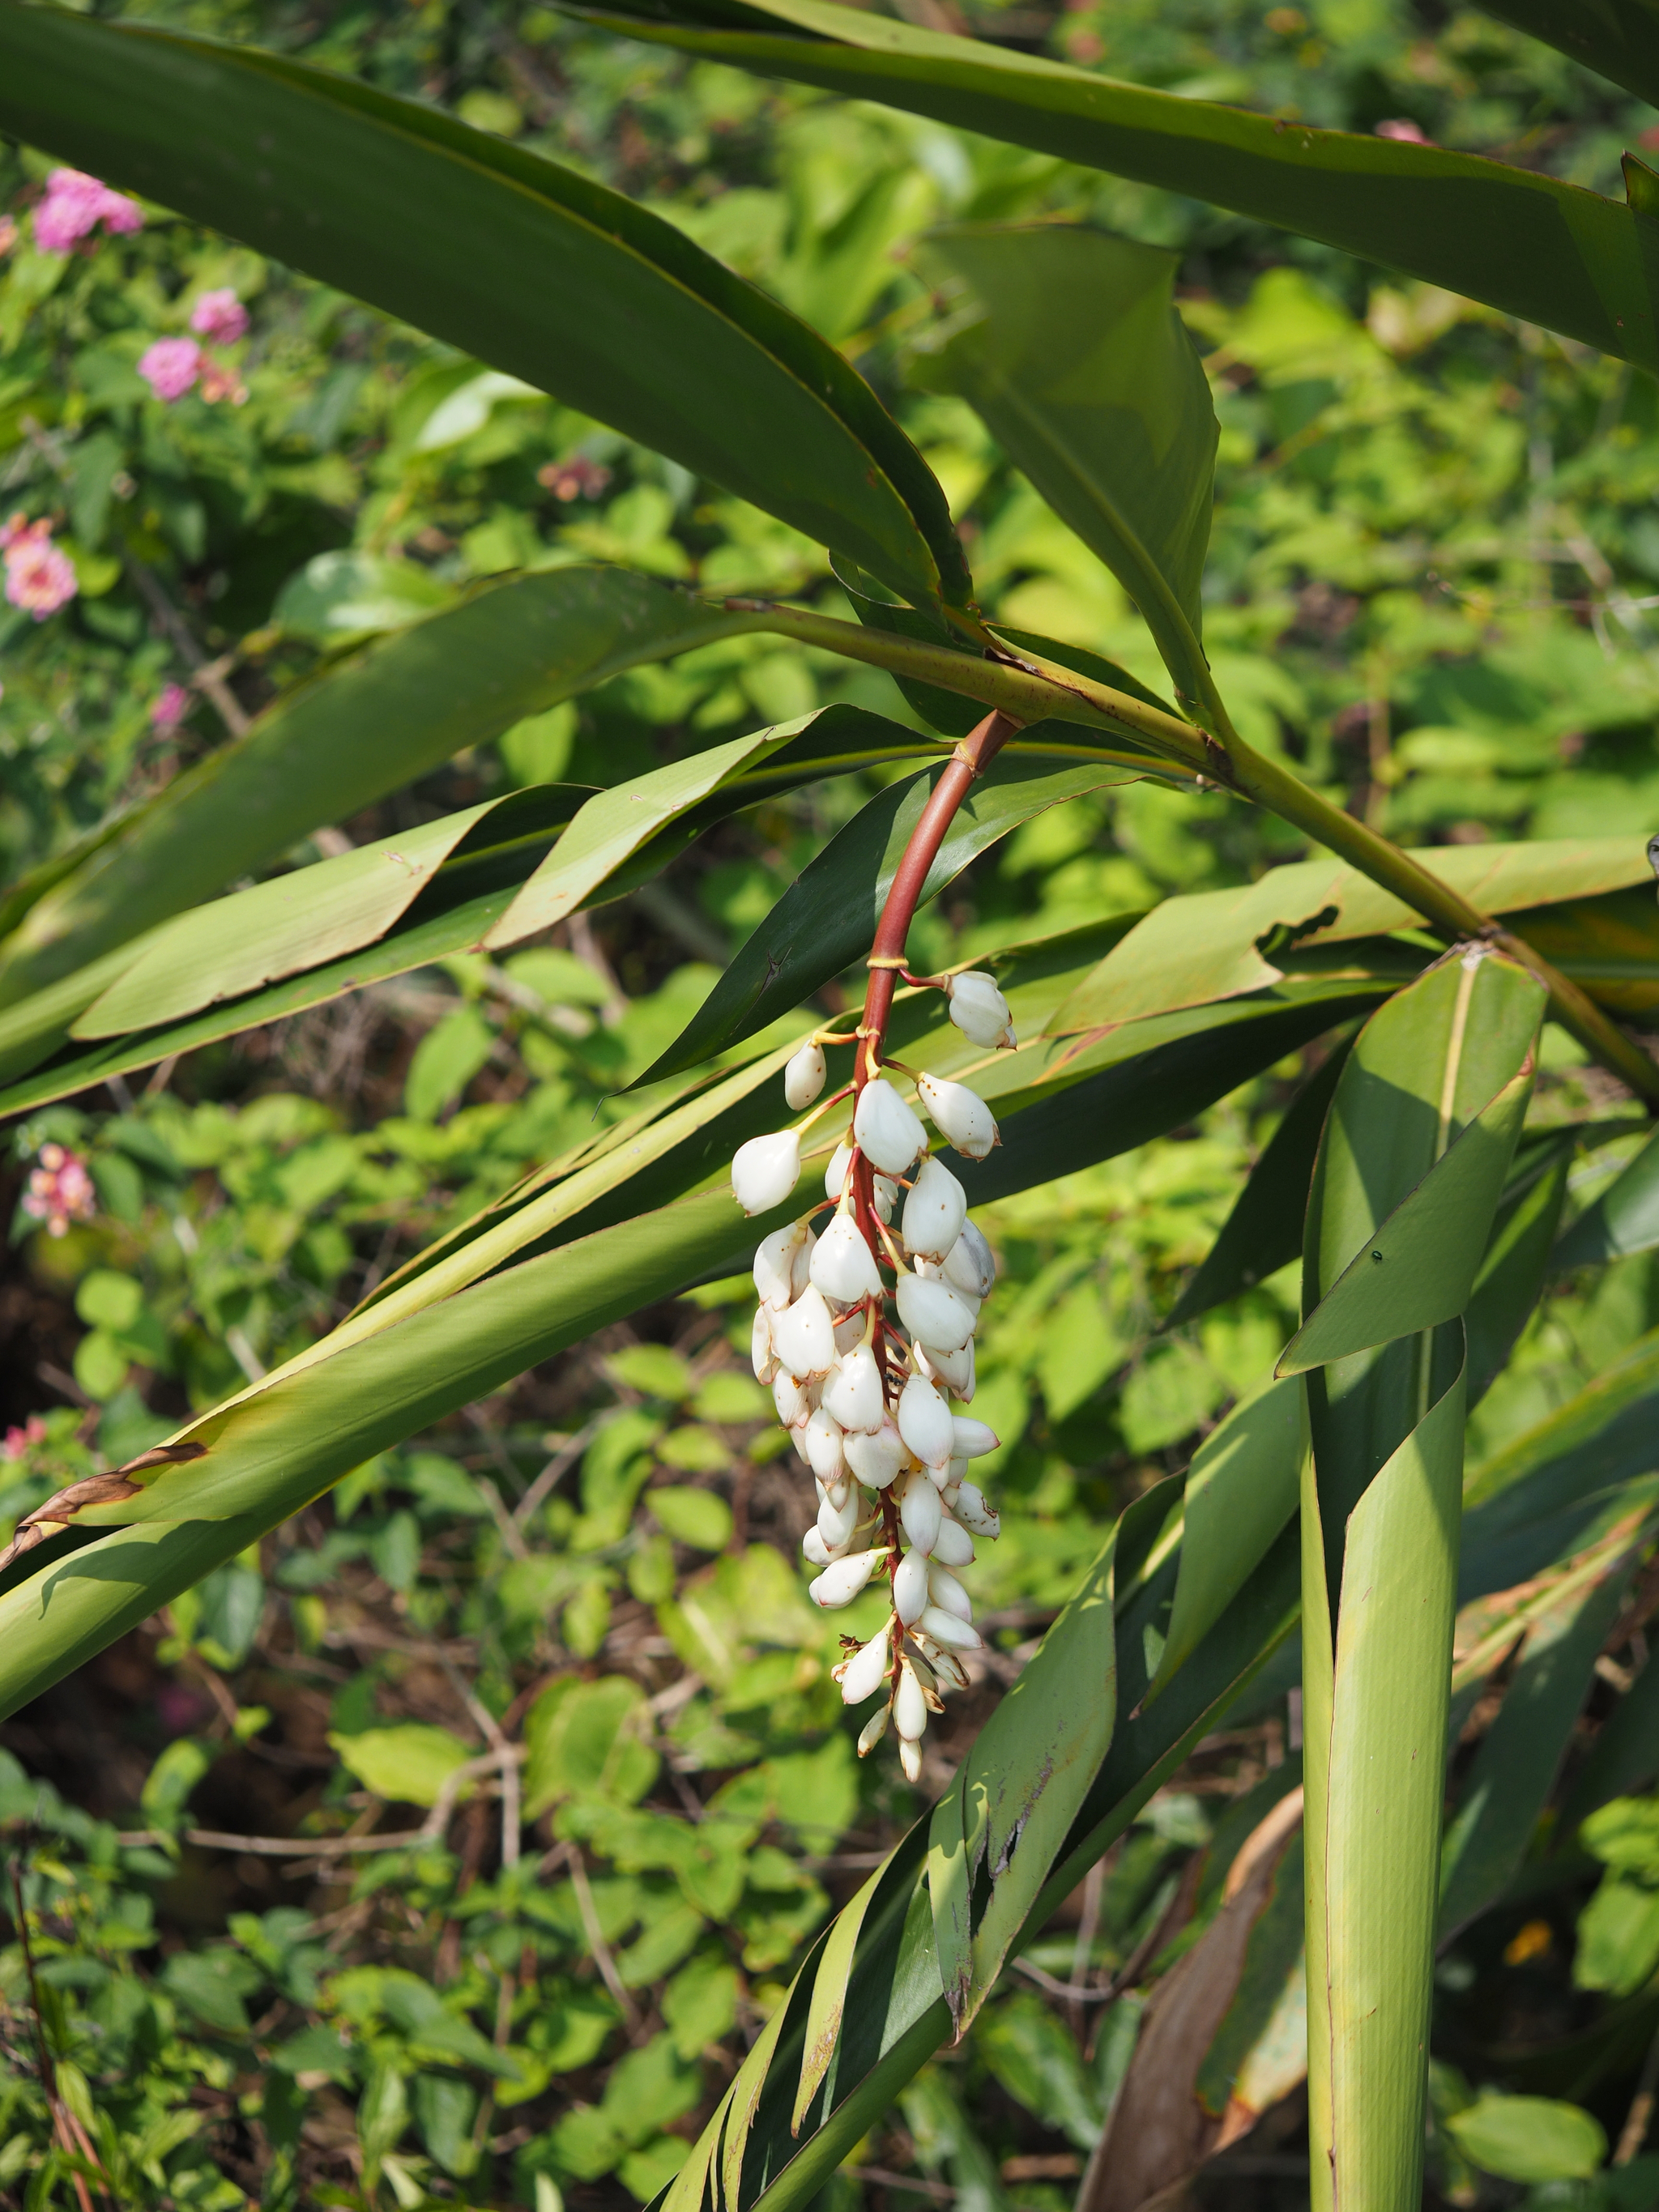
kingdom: Plantae
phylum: Tracheophyta
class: Liliopsida
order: Zingiberales
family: Zingiberaceae
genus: Alpinia
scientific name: Alpinia zerumbet
